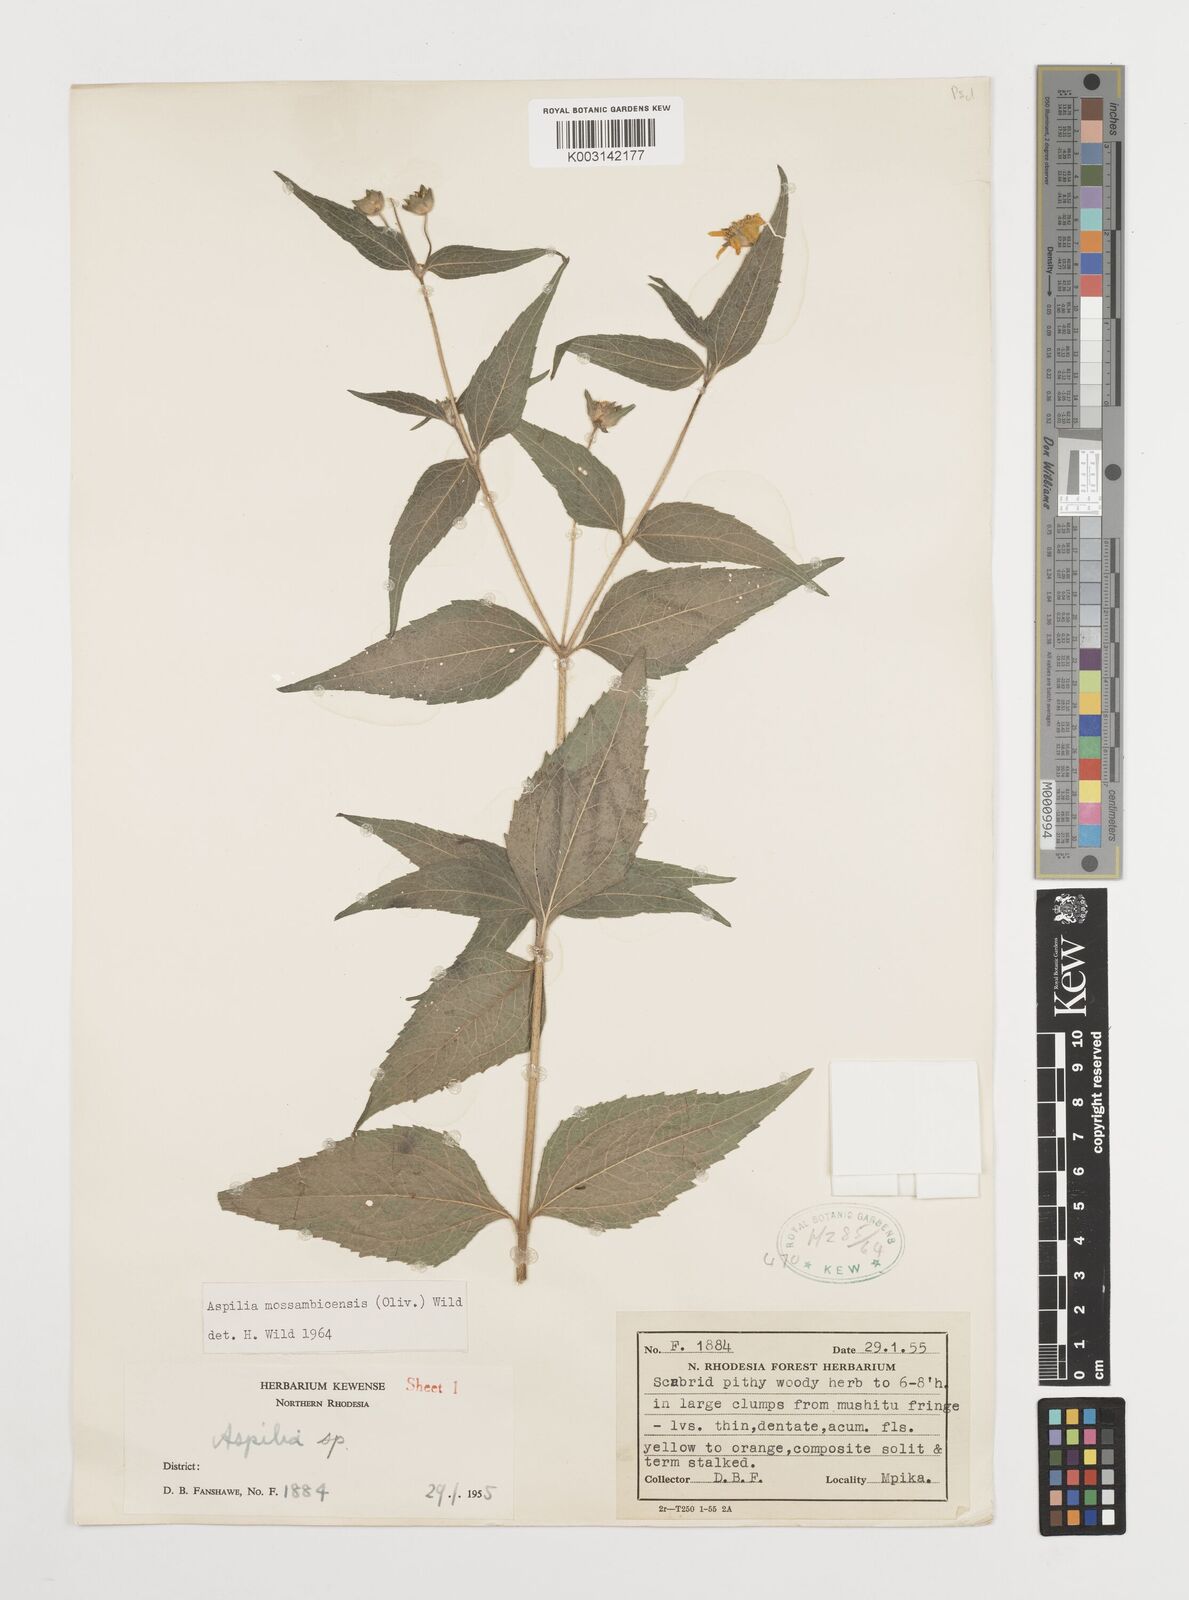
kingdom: Plantae
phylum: Tracheophyta
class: Magnoliopsida
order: Asterales
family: Asteraceae
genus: Aspilia
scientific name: Aspilia mossambicensis
